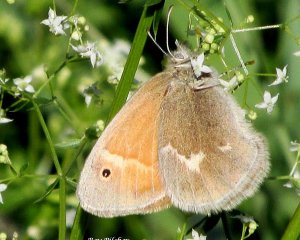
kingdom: Animalia
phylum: Arthropoda
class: Insecta
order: Lepidoptera
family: Nymphalidae
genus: Coenonympha
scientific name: Coenonympha tullia
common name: Large Heath
